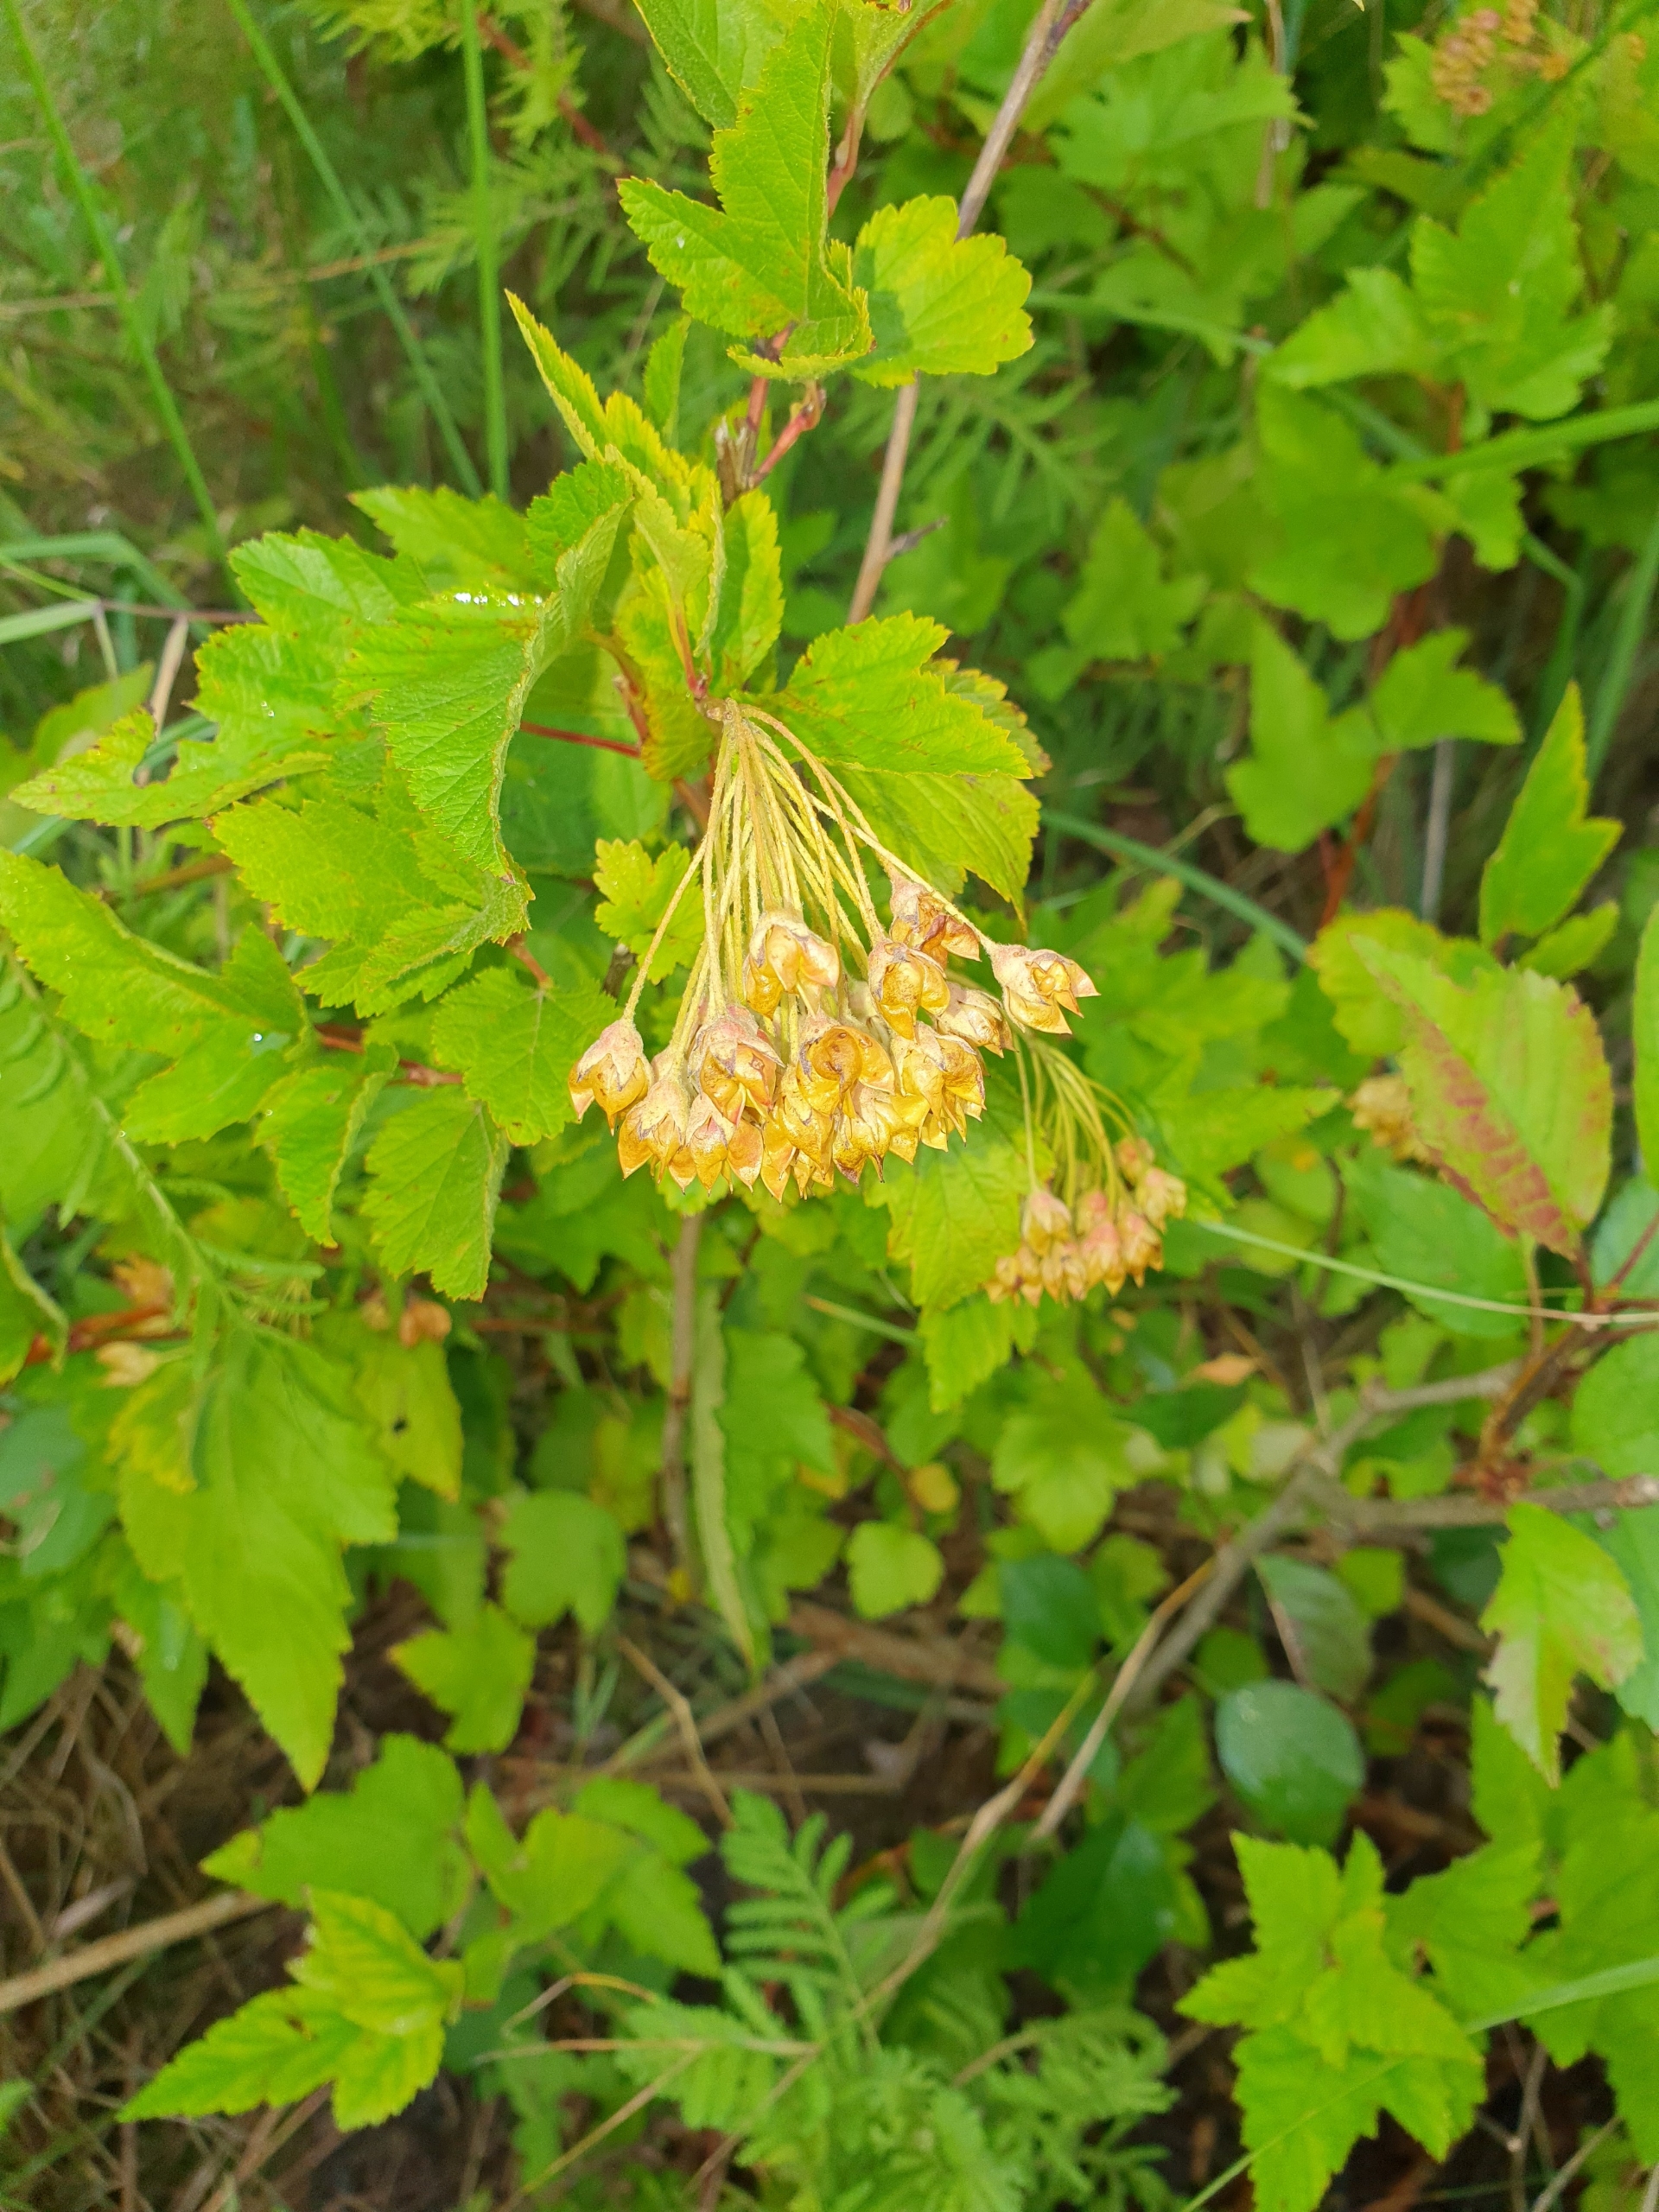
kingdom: Plantae
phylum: Tracheophyta
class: Magnoliopsida
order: Rosales
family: Rosaceae
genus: Physocarpus
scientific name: Physocarpus opulifolius
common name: Almindelig blærespiræa
